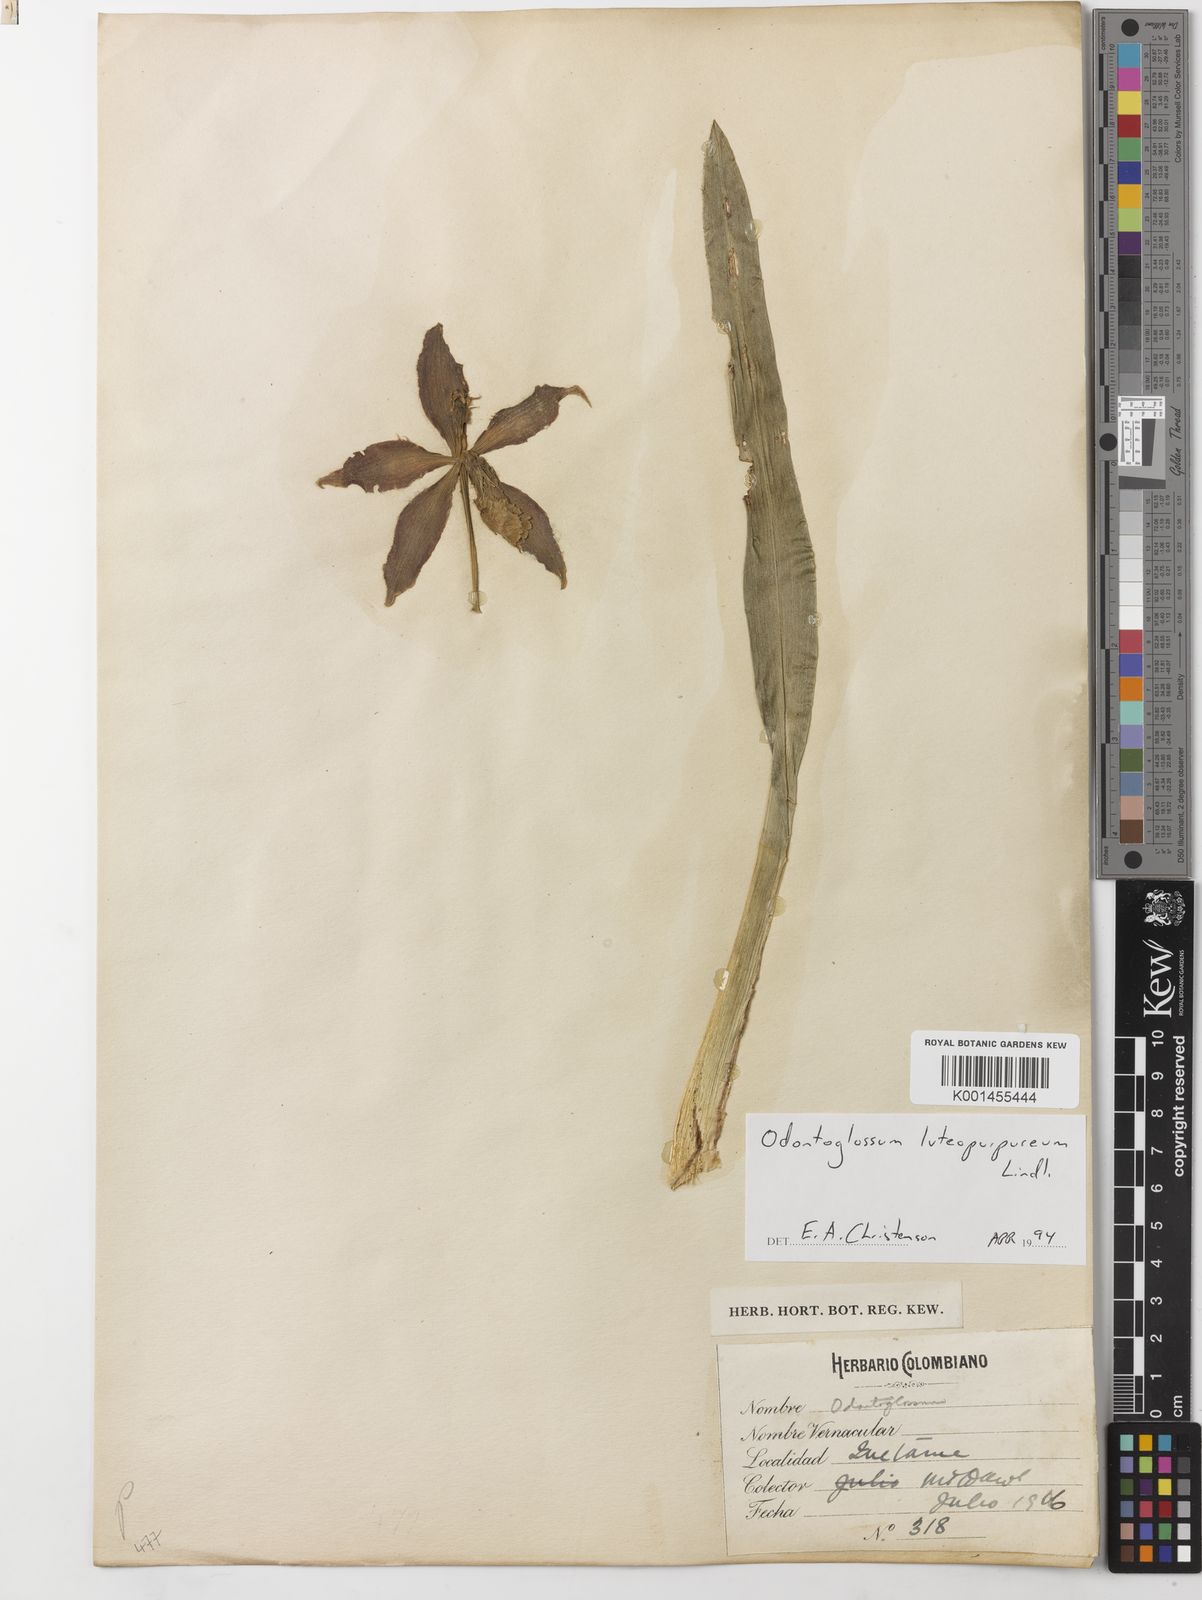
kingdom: Plantae
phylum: Tracheophyta
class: Liliopsida
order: Asparagales
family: Orchidaceae
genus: Oncidium
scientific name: Oncidium luteopurpureum
